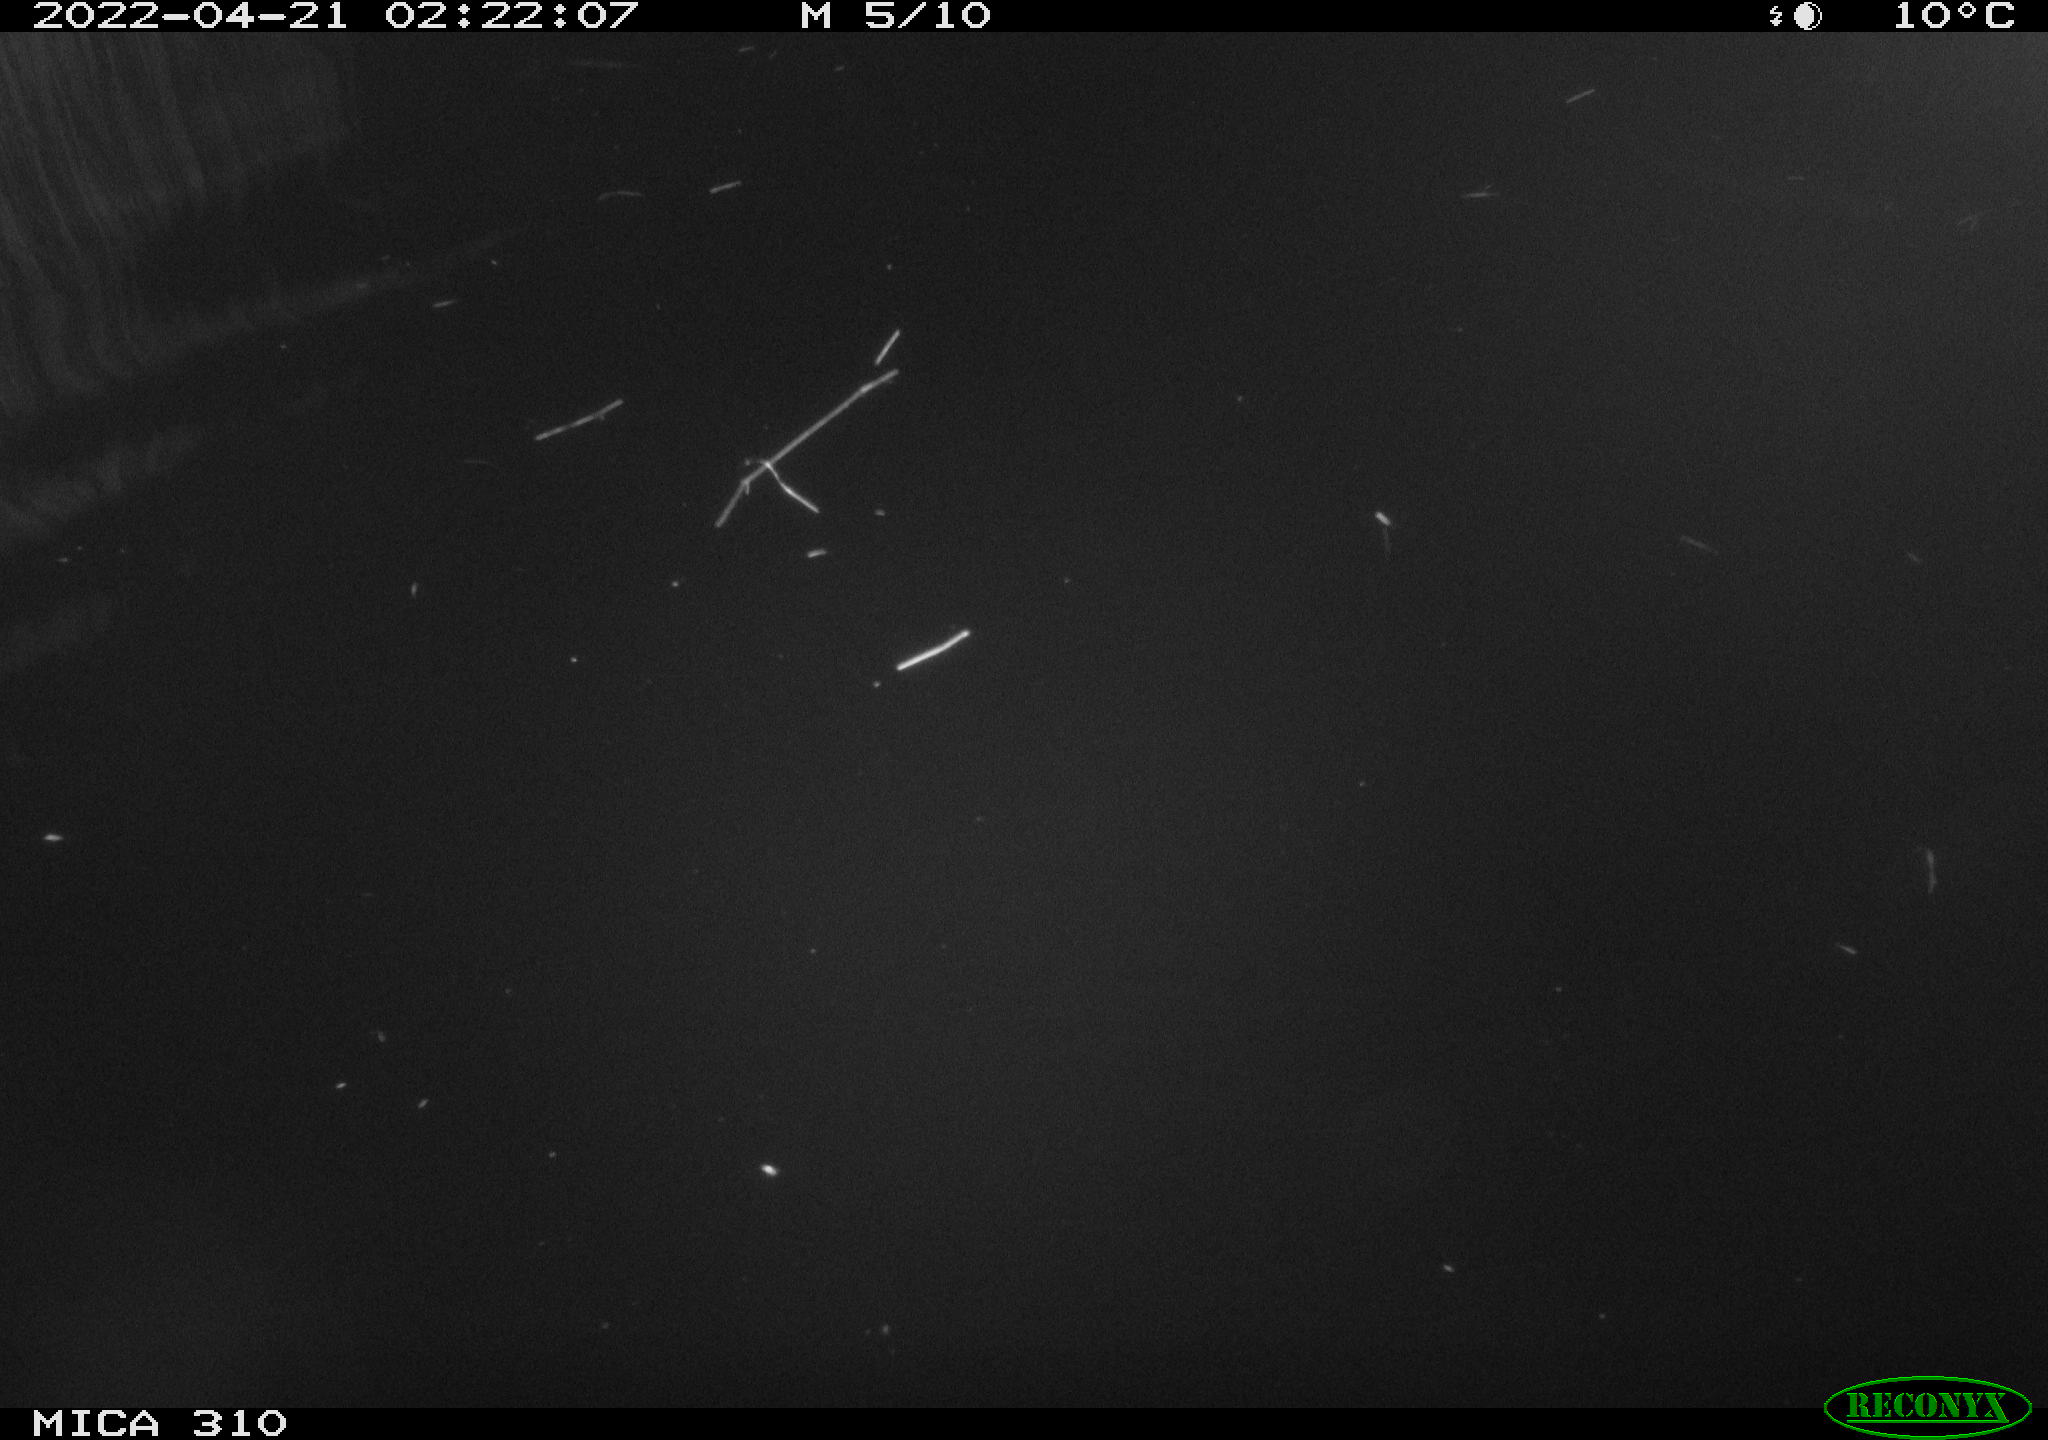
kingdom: Animalia
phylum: Chordata
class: Aves
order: Anseriformes
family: Anatidae
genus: Anas
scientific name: Anas platyrhynchos
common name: Mallard
